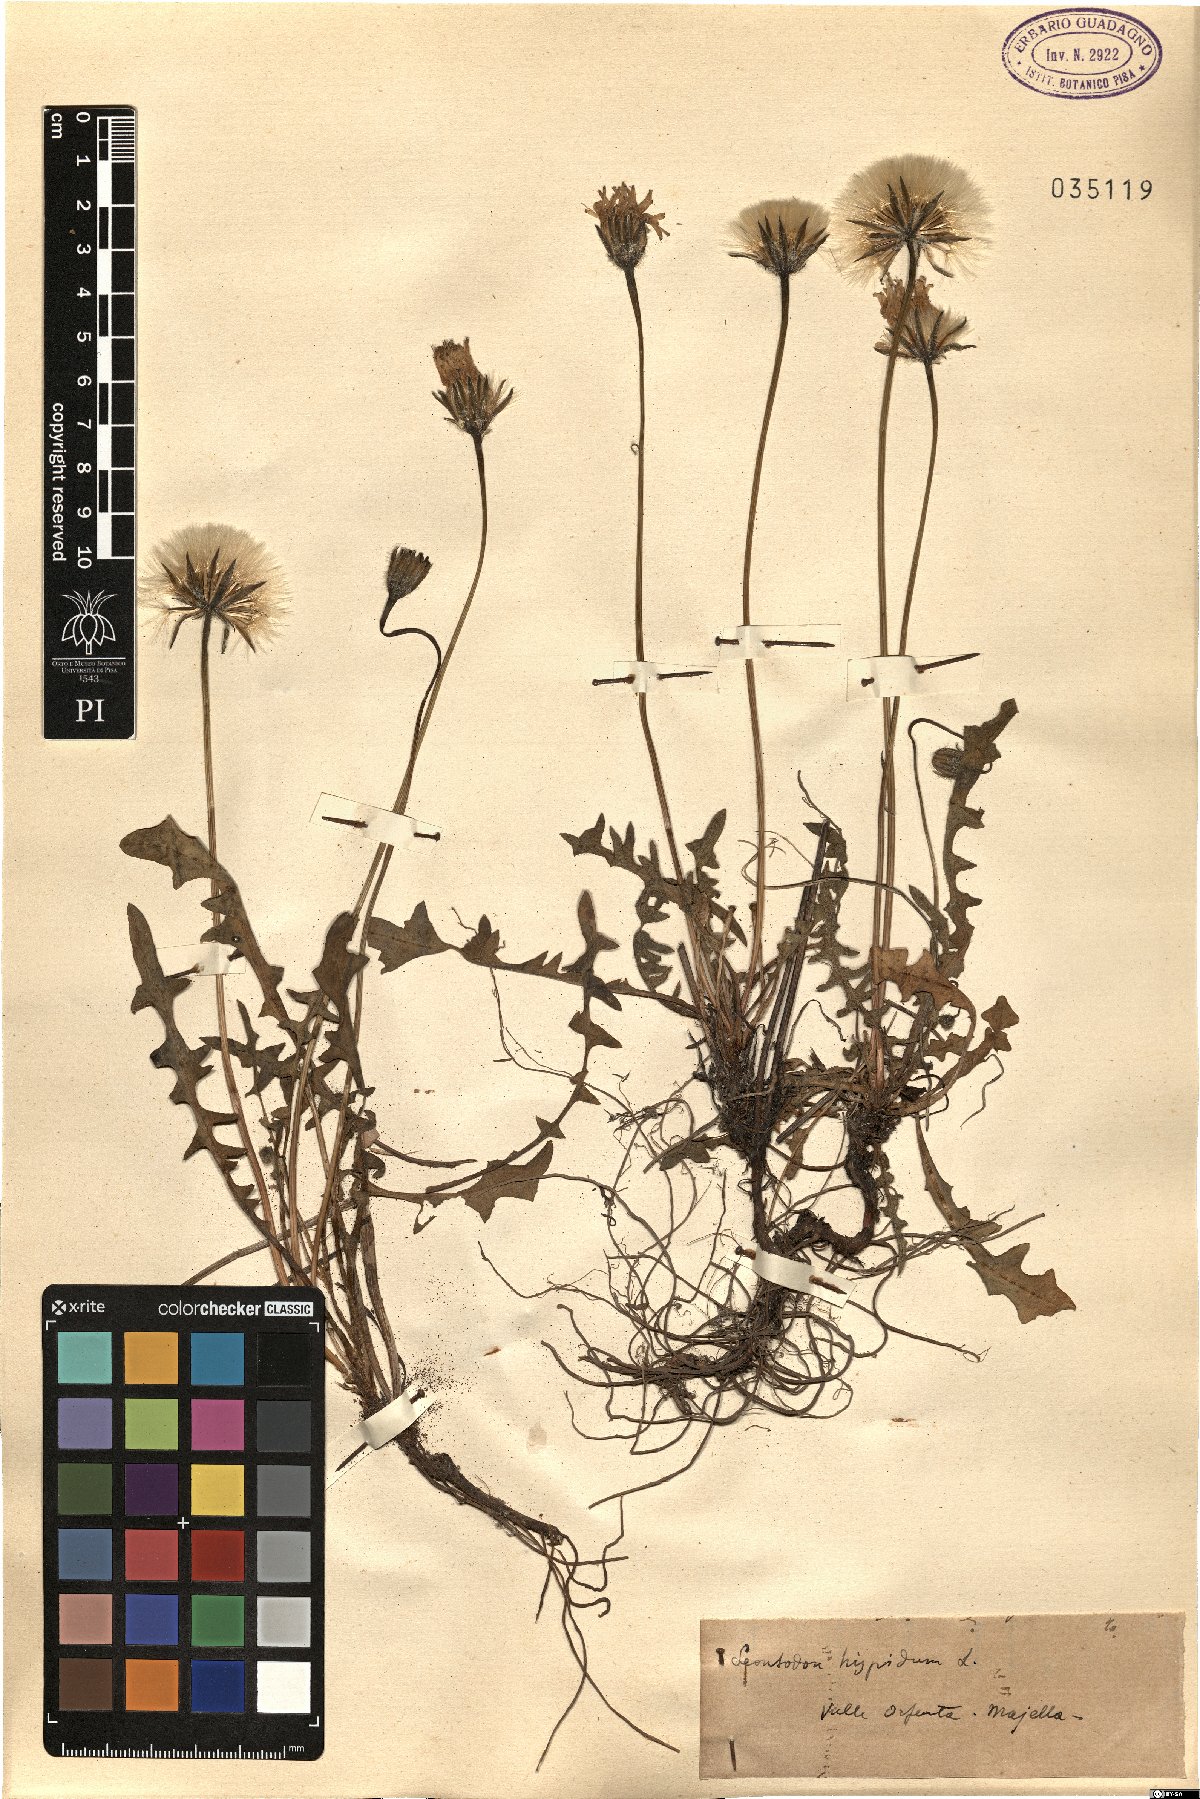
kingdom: Plantae
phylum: Tracheophyta
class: Magnoliopsida
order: Asterales
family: Asteraceae
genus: Leontodon
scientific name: Leontodon hispidus
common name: Rough hawkbit
